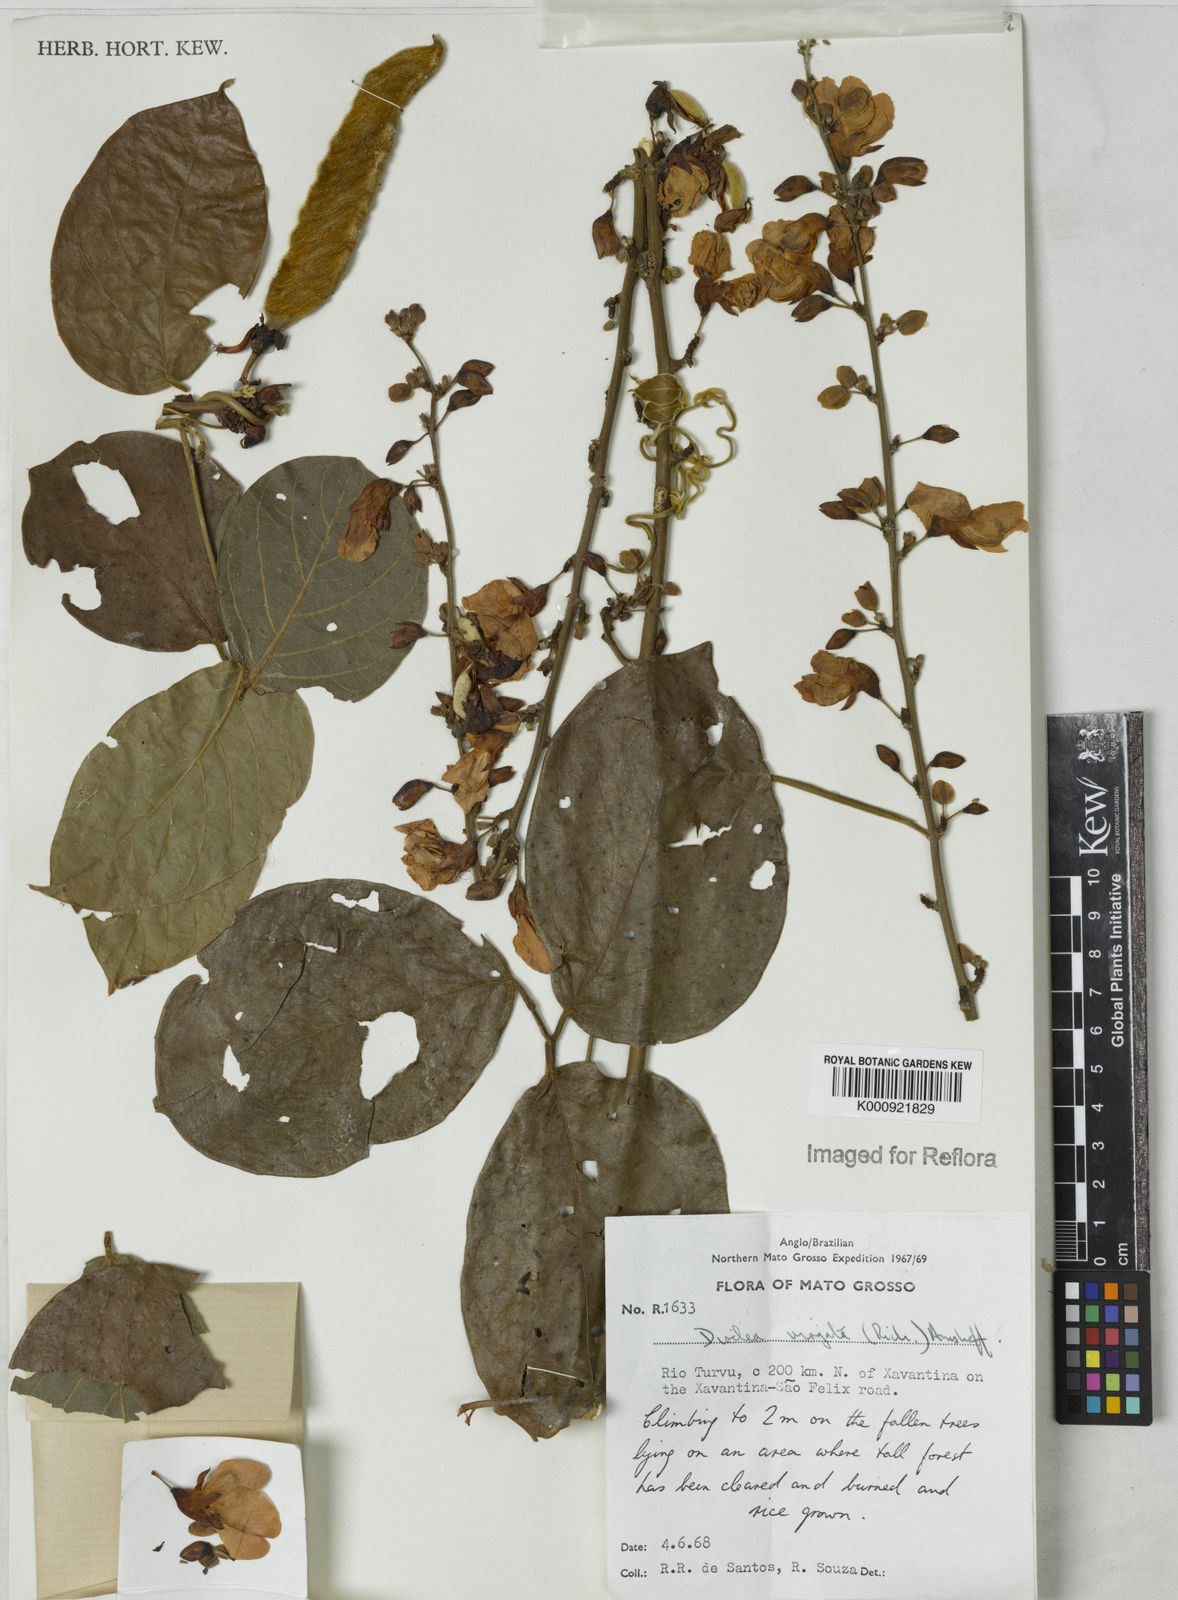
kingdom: Plantae
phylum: Tracheophyta
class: Magnoliopsida
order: Fabales
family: Fabaceae
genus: Dioclea
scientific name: Dioclea virgata
